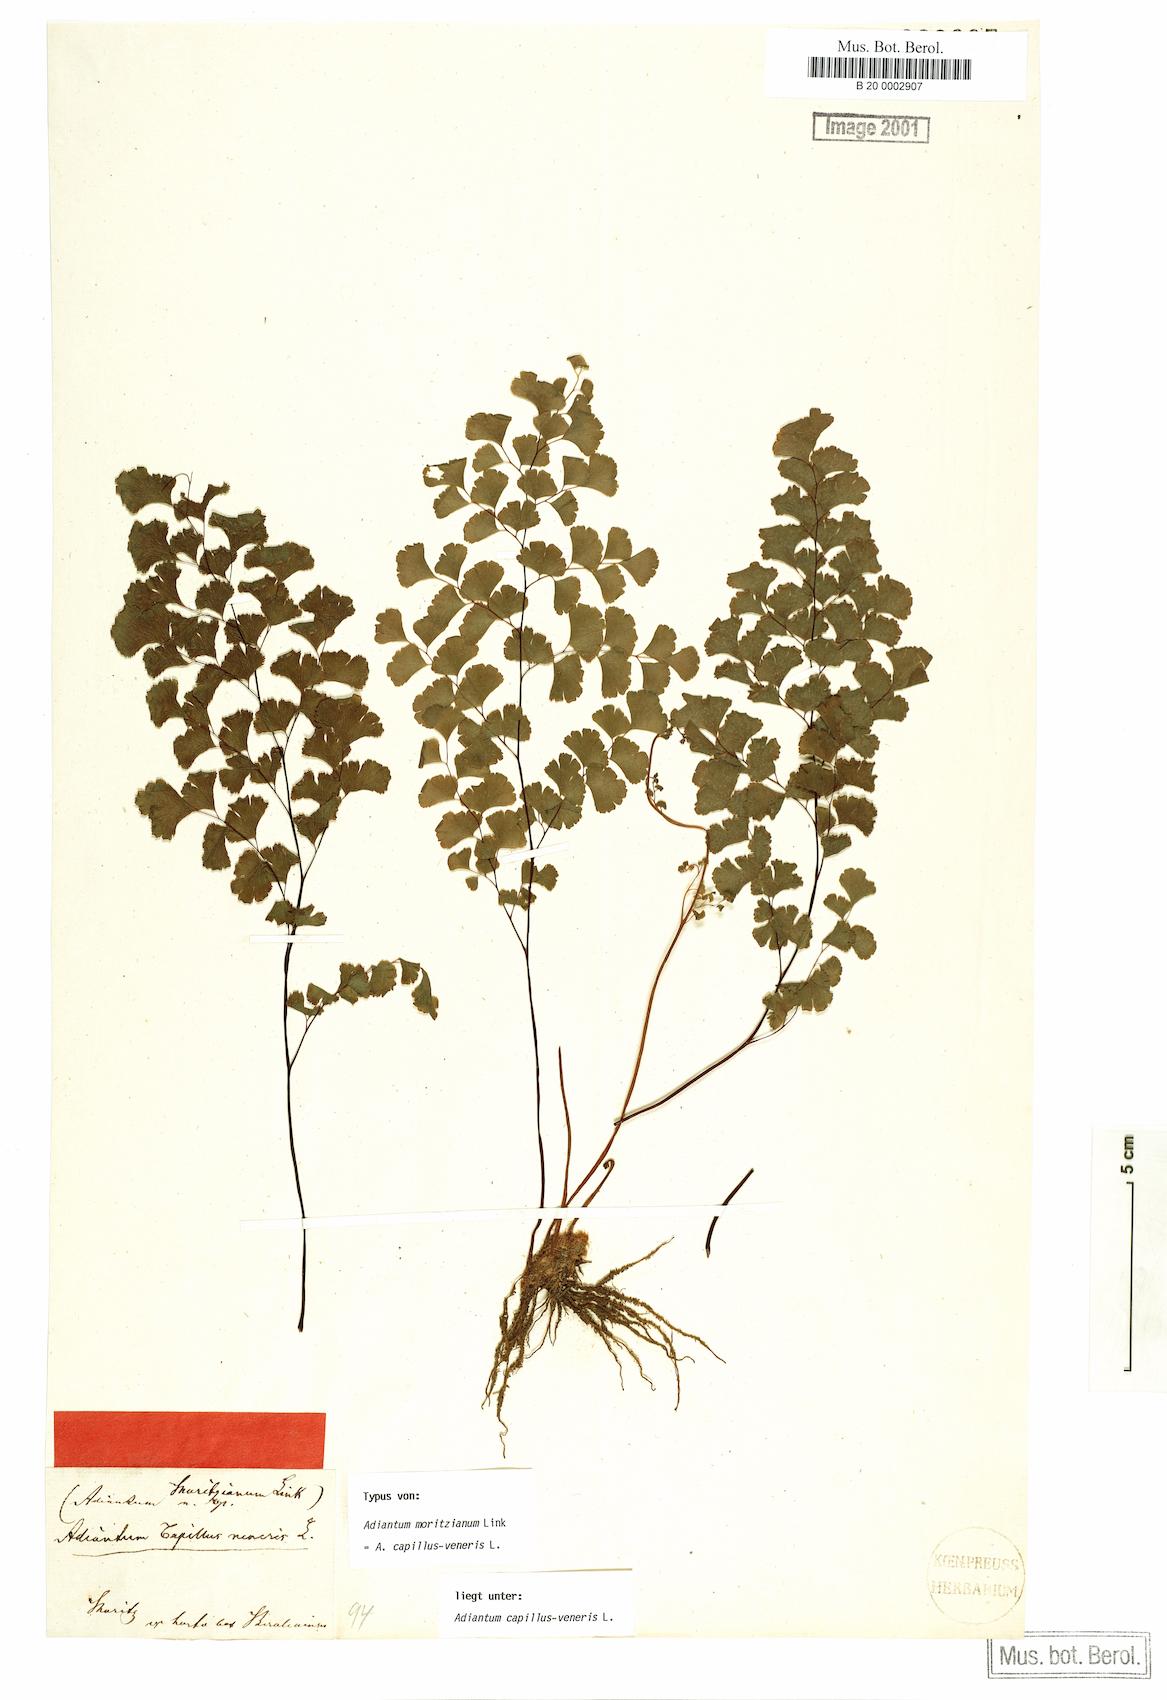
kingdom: Plantae
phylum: Tracheophyta
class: Polypodiopsida
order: Polypodiales
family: Pteridaceae
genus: Adiantum
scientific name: Adiantum capillus-veneris
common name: Maidenhair fern
